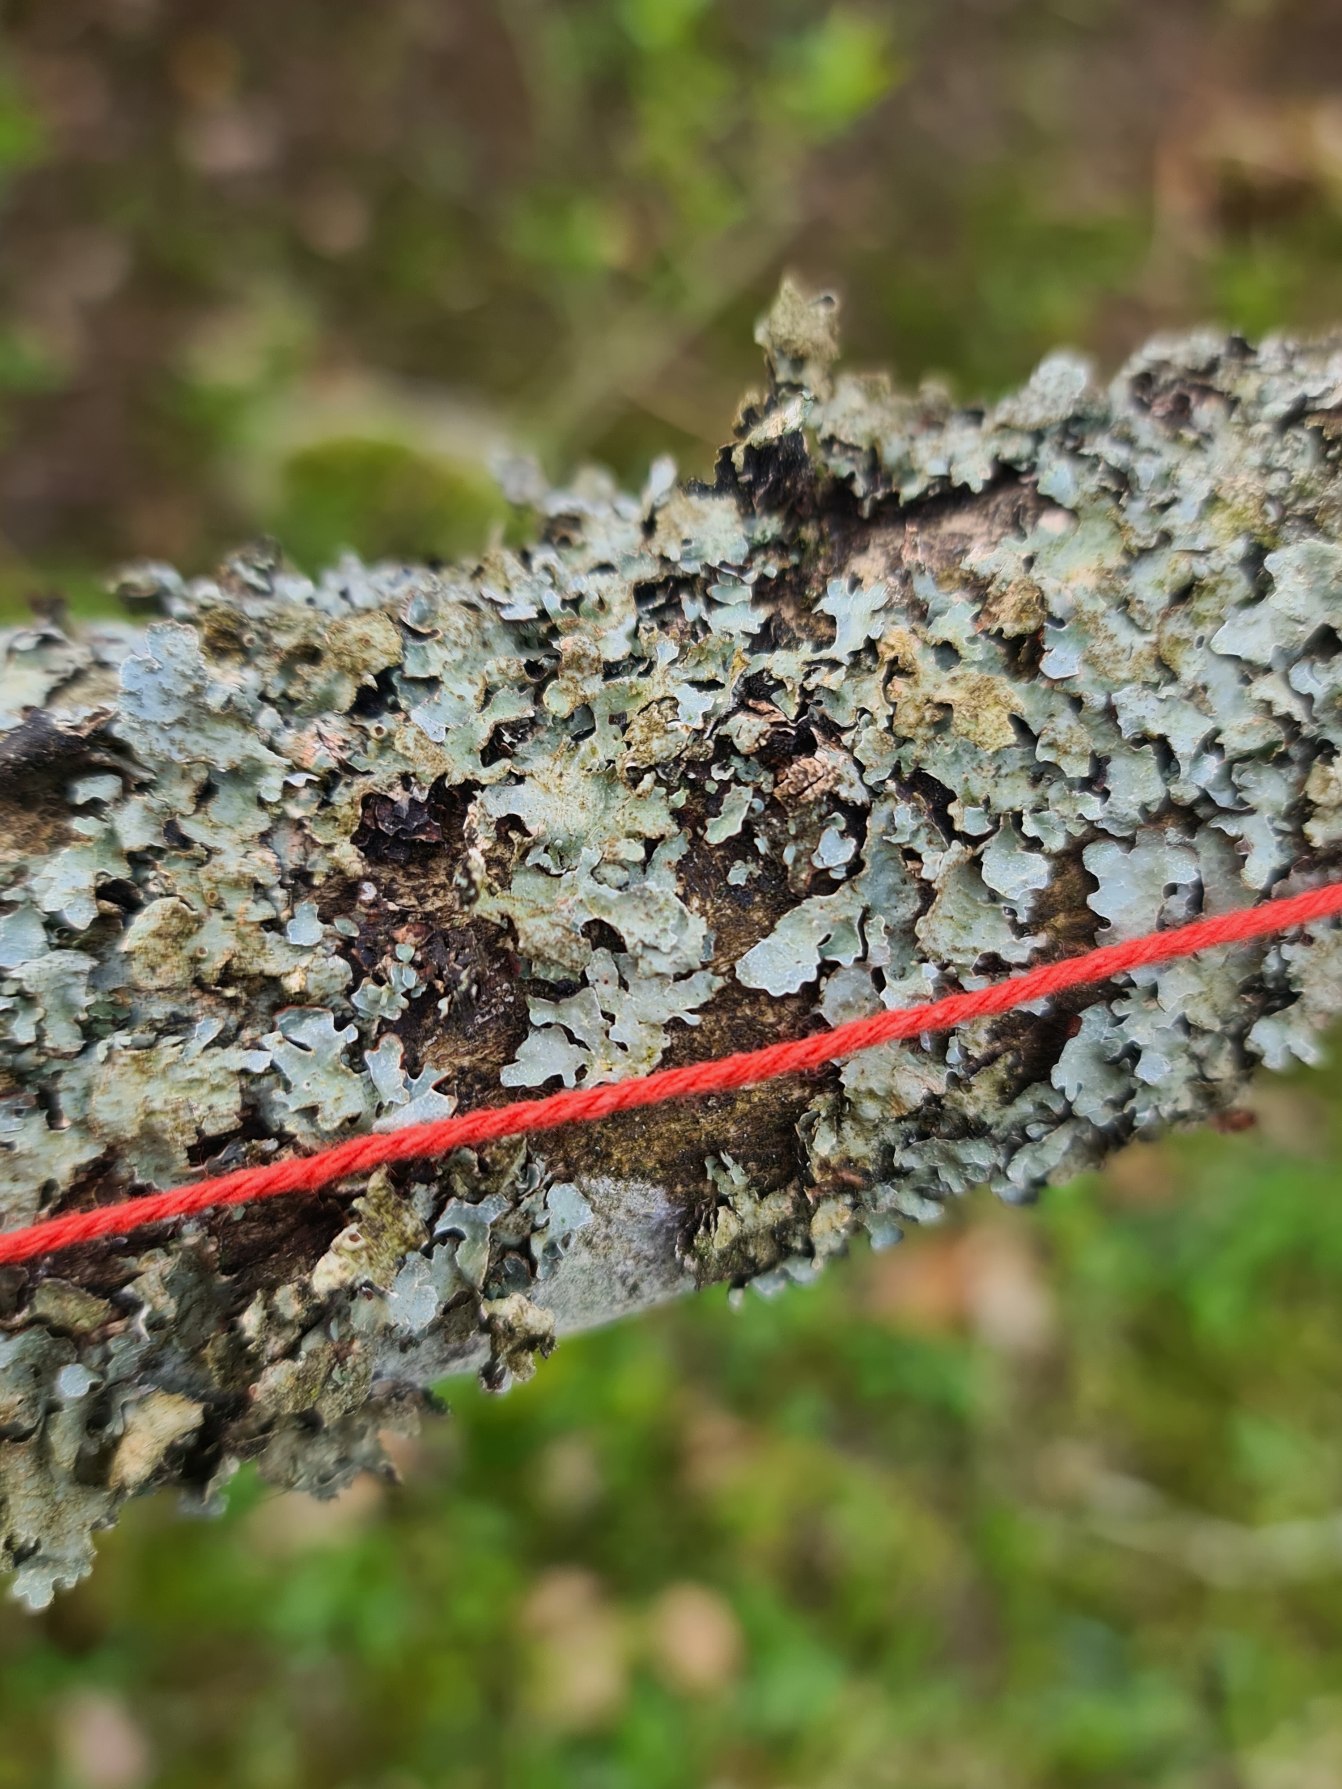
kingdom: Fungi
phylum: Ascomycota
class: Lecanoromycetes
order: Lecanorales
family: Parmeliaceae
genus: Parmelia
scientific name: Parmelia sulcata
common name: Rynket skållav
